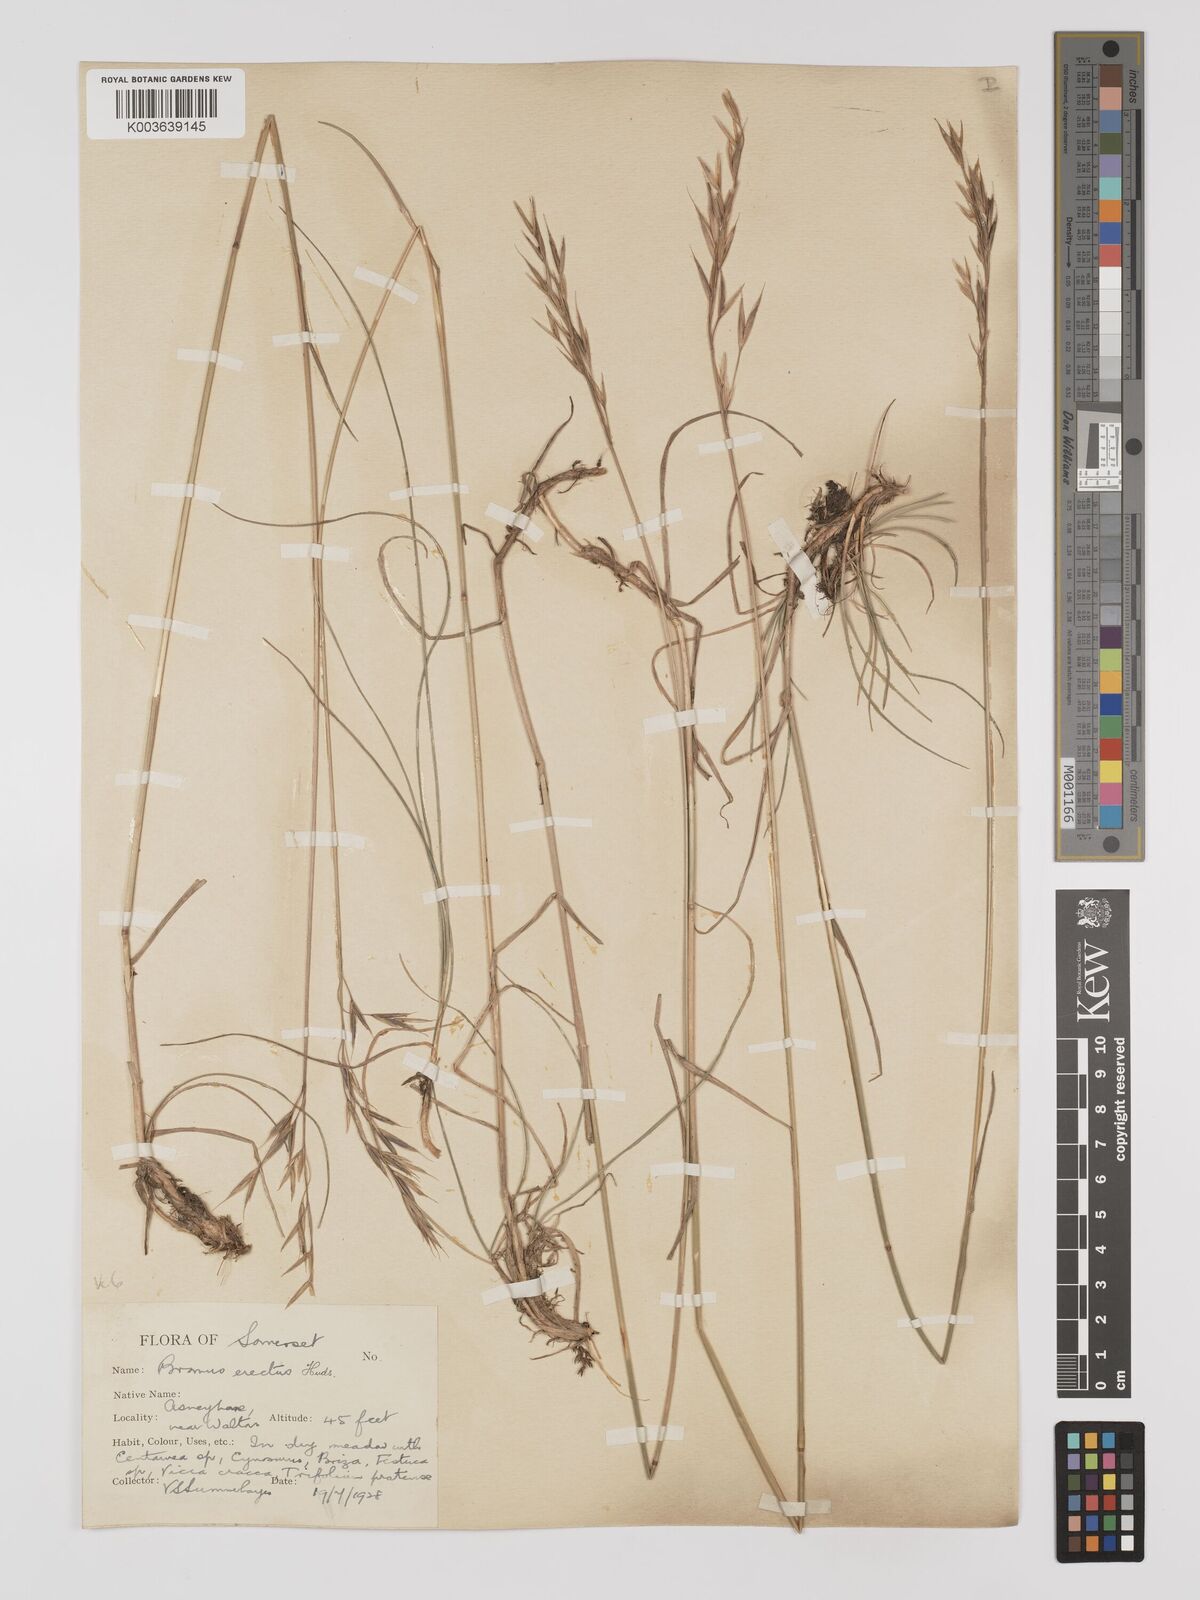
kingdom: Plantae
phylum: Tracheophyta
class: Liliopsida
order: Poales
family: Poaceae
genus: Bromus
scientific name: Bromus erectus
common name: Erect brome
